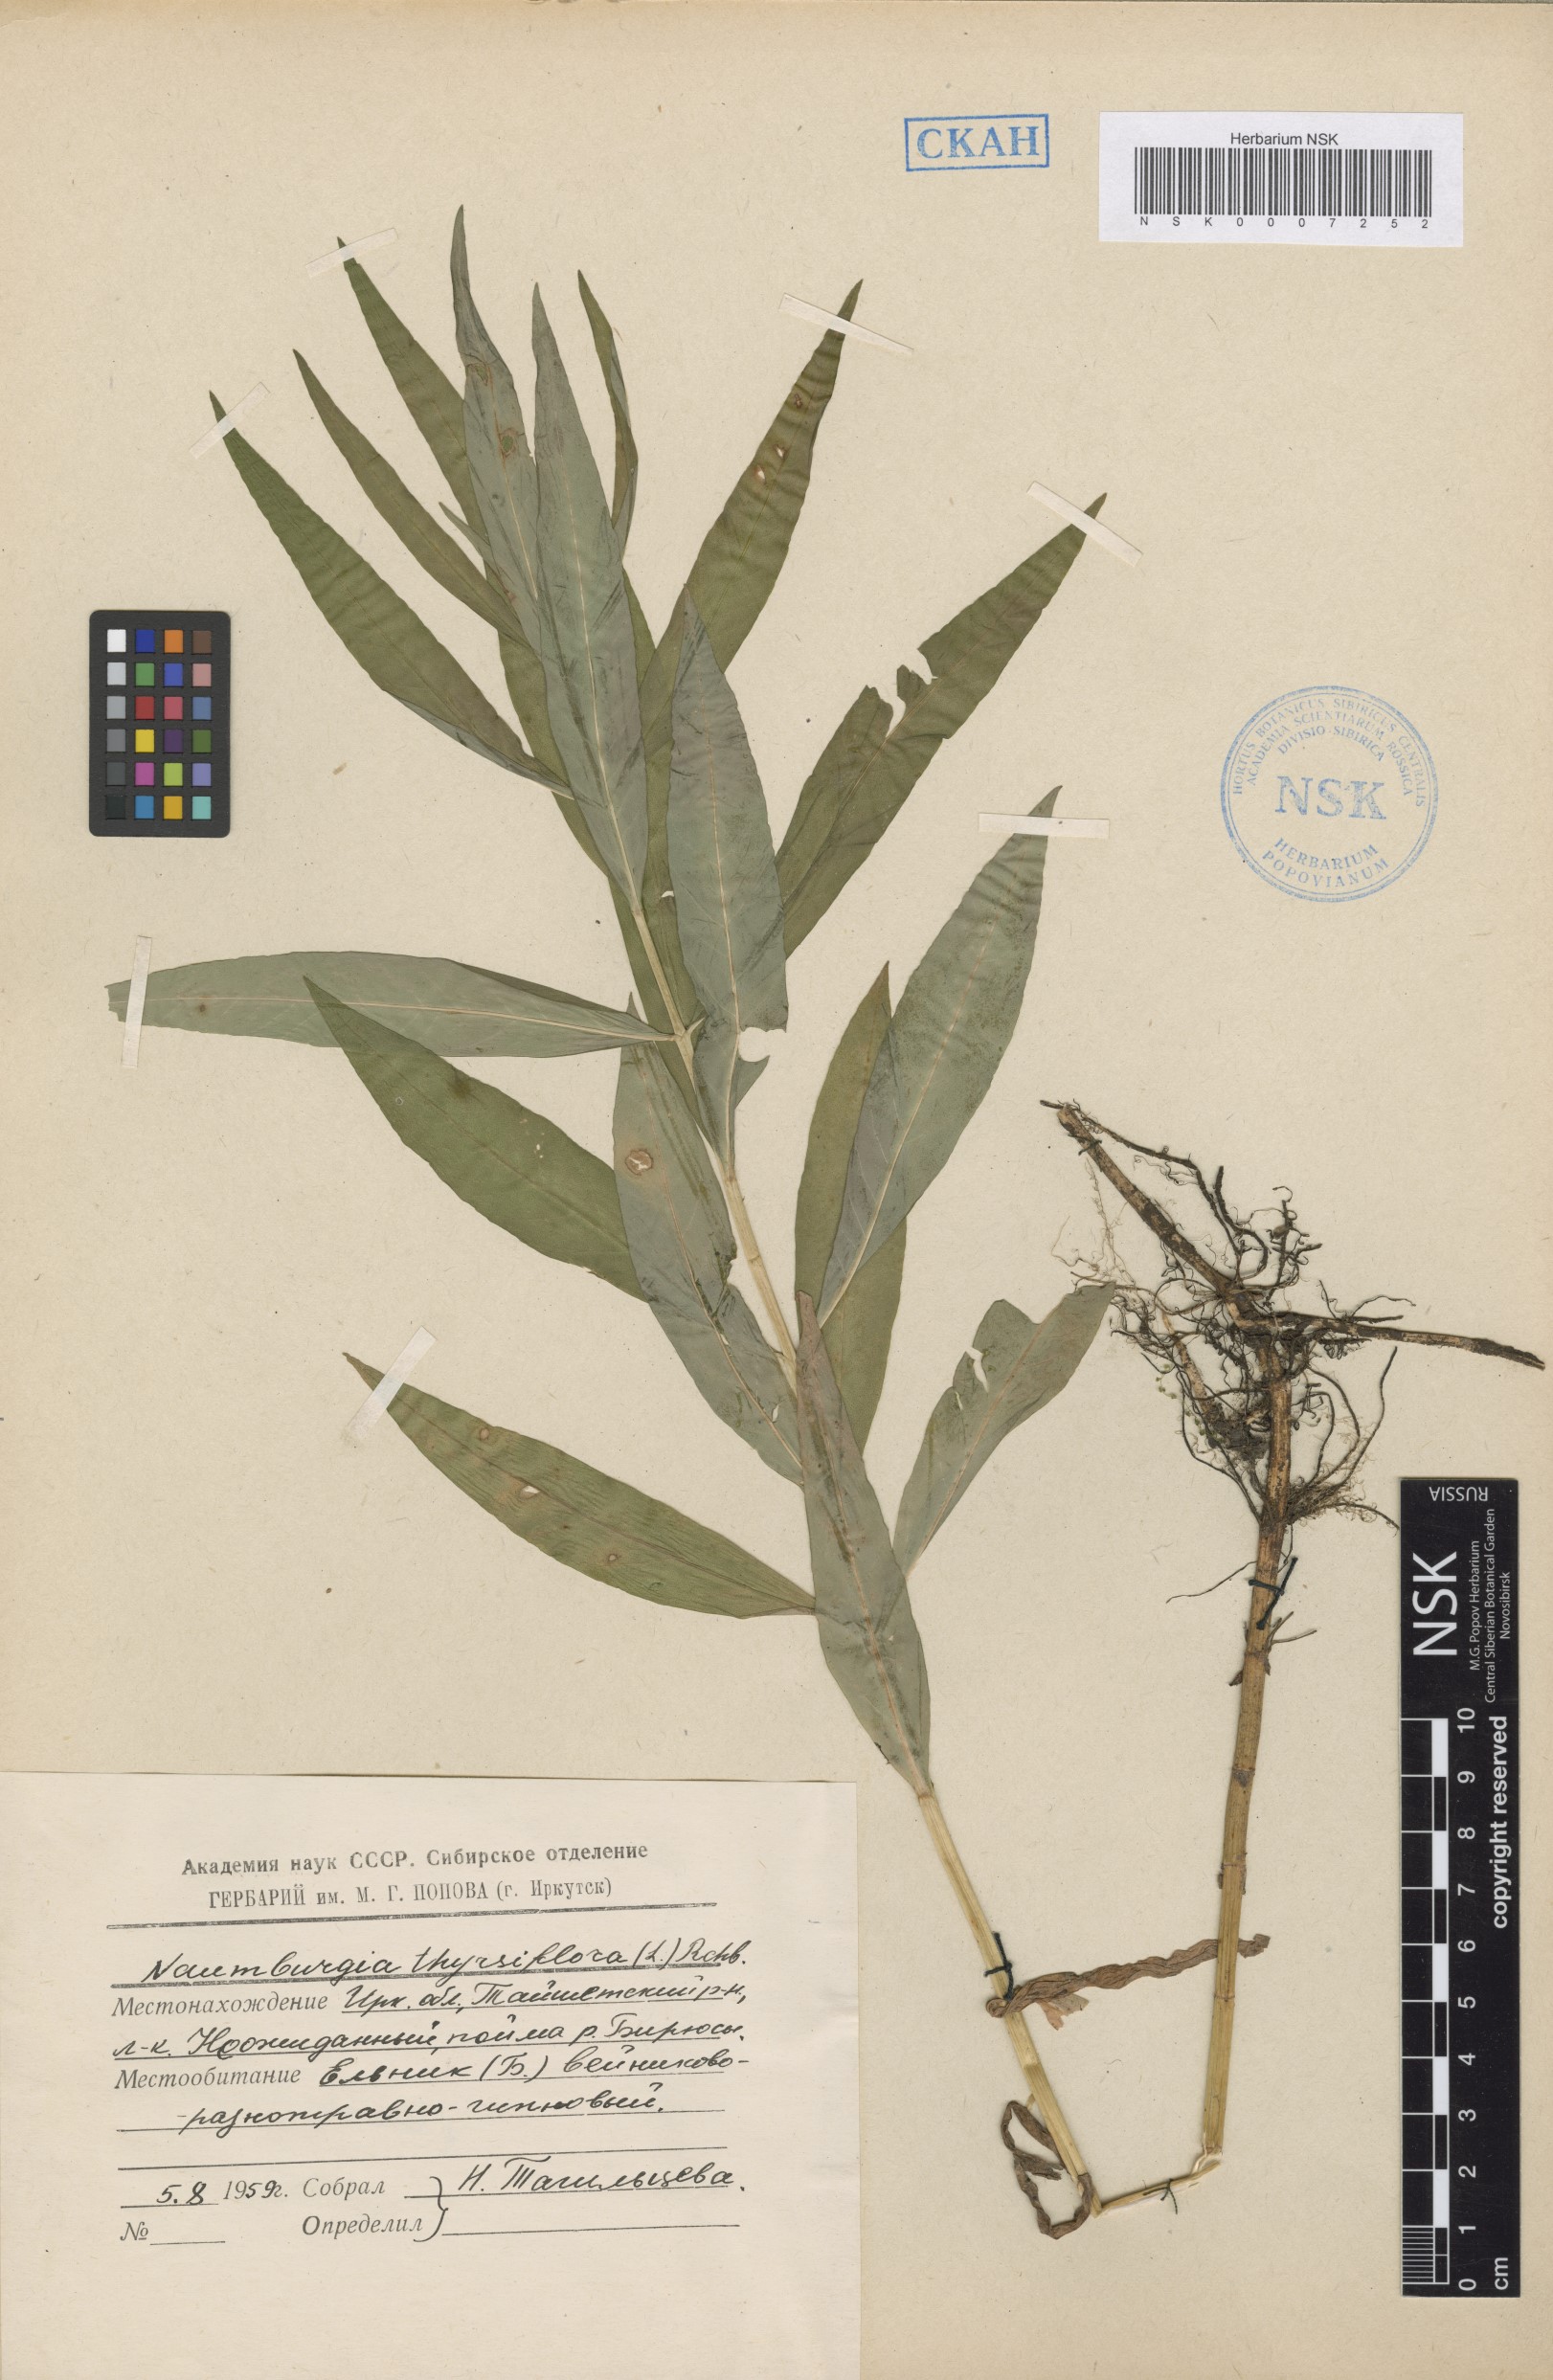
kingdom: Plantae
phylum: Tracheophyta
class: Magnoliopsida
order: Ericales
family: Primulaceae
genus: Lysimachia
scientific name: Lysimachia thyrsiflora
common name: Tufted loosestrife
